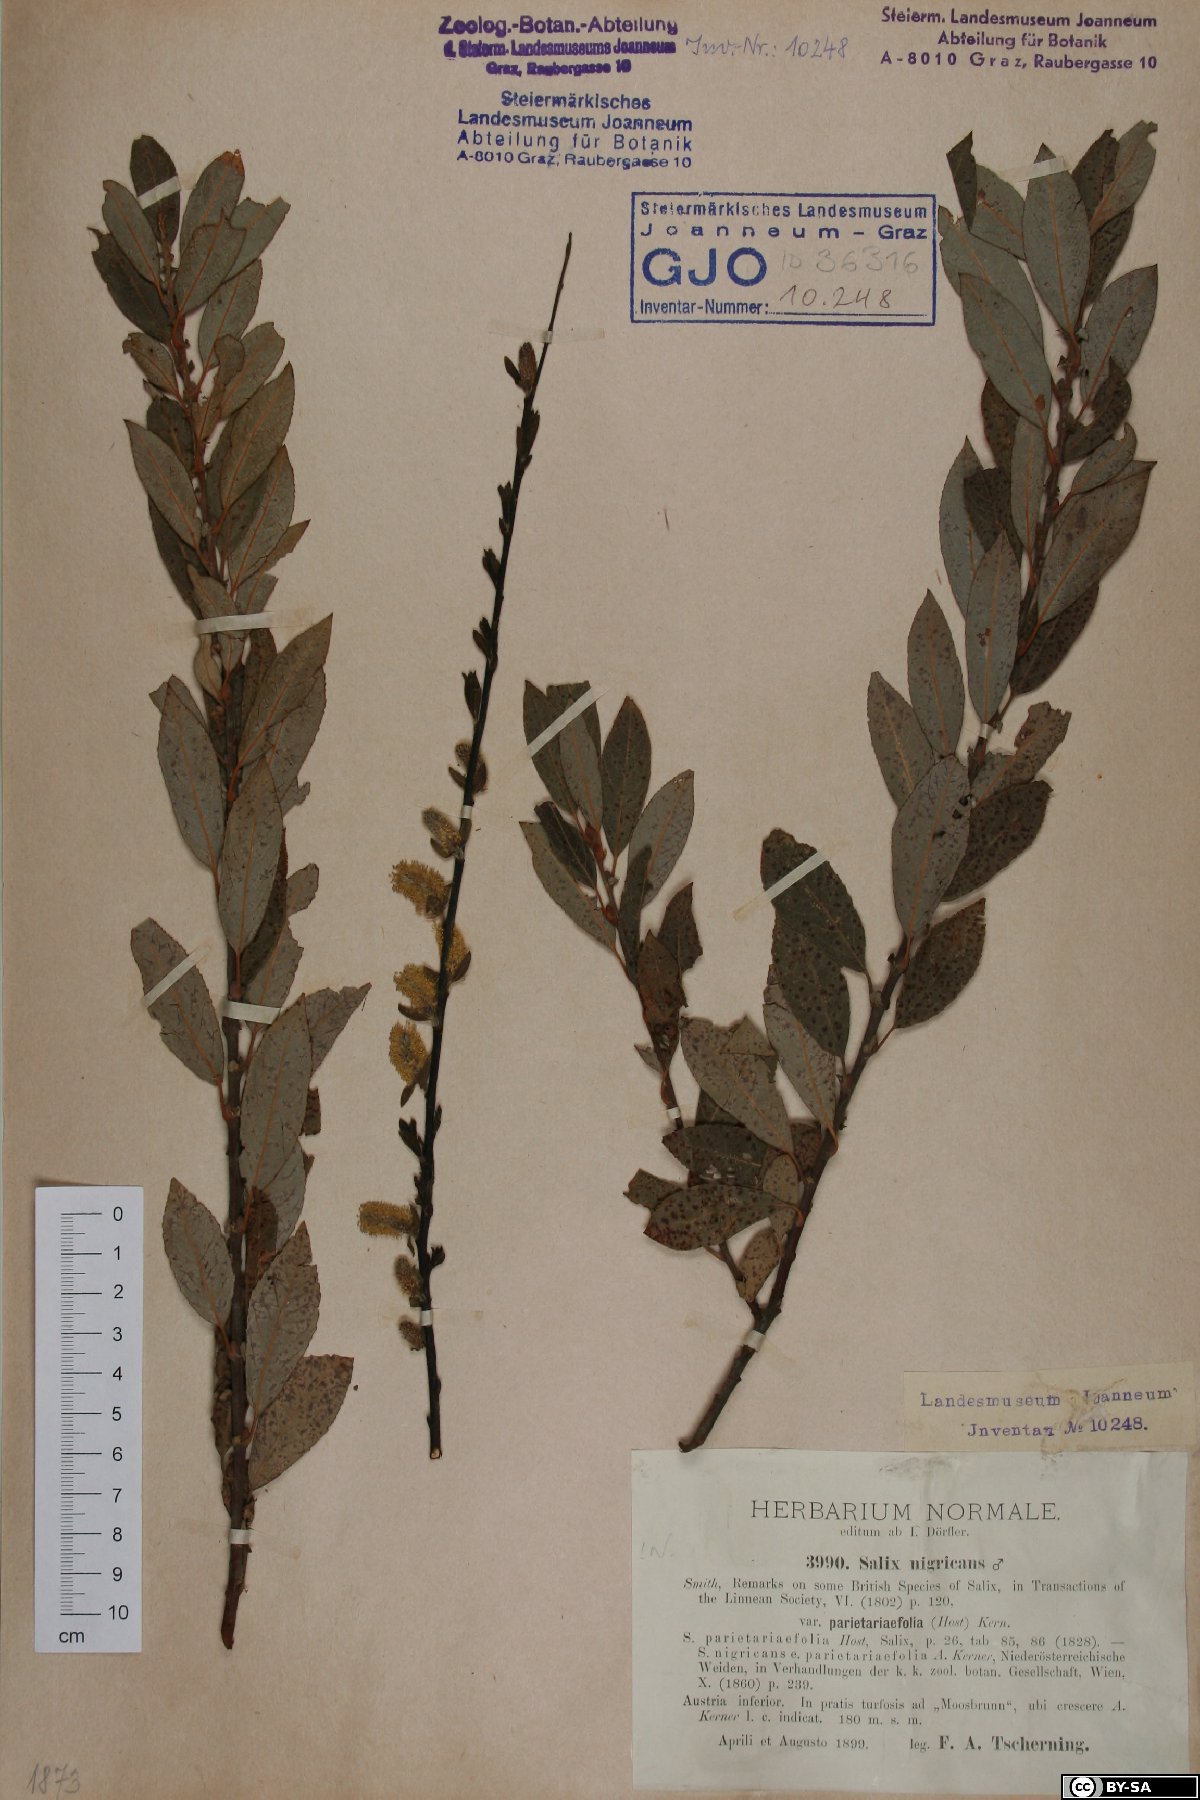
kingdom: Plantae
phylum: Tracheophyta
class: Magnoliopsida
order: Malpighiales
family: Salicaceae
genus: Salix
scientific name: Salix myrsinifolia
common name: Dark-leaved willow
